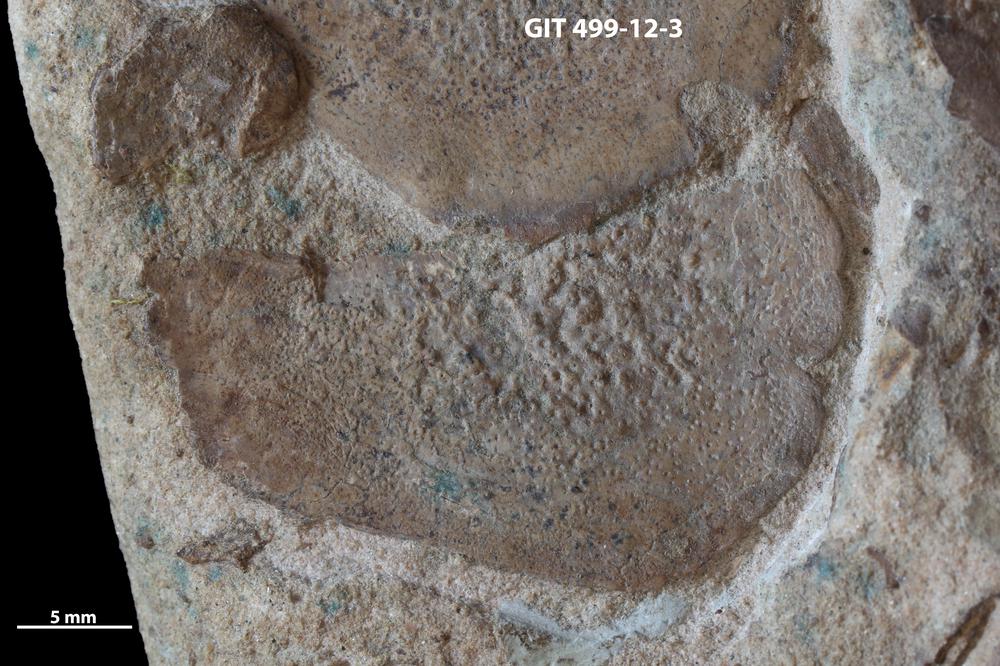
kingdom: Animalia
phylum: Chordata
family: Holoptychiidae
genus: Glyptolepis
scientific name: Glyptolepis
